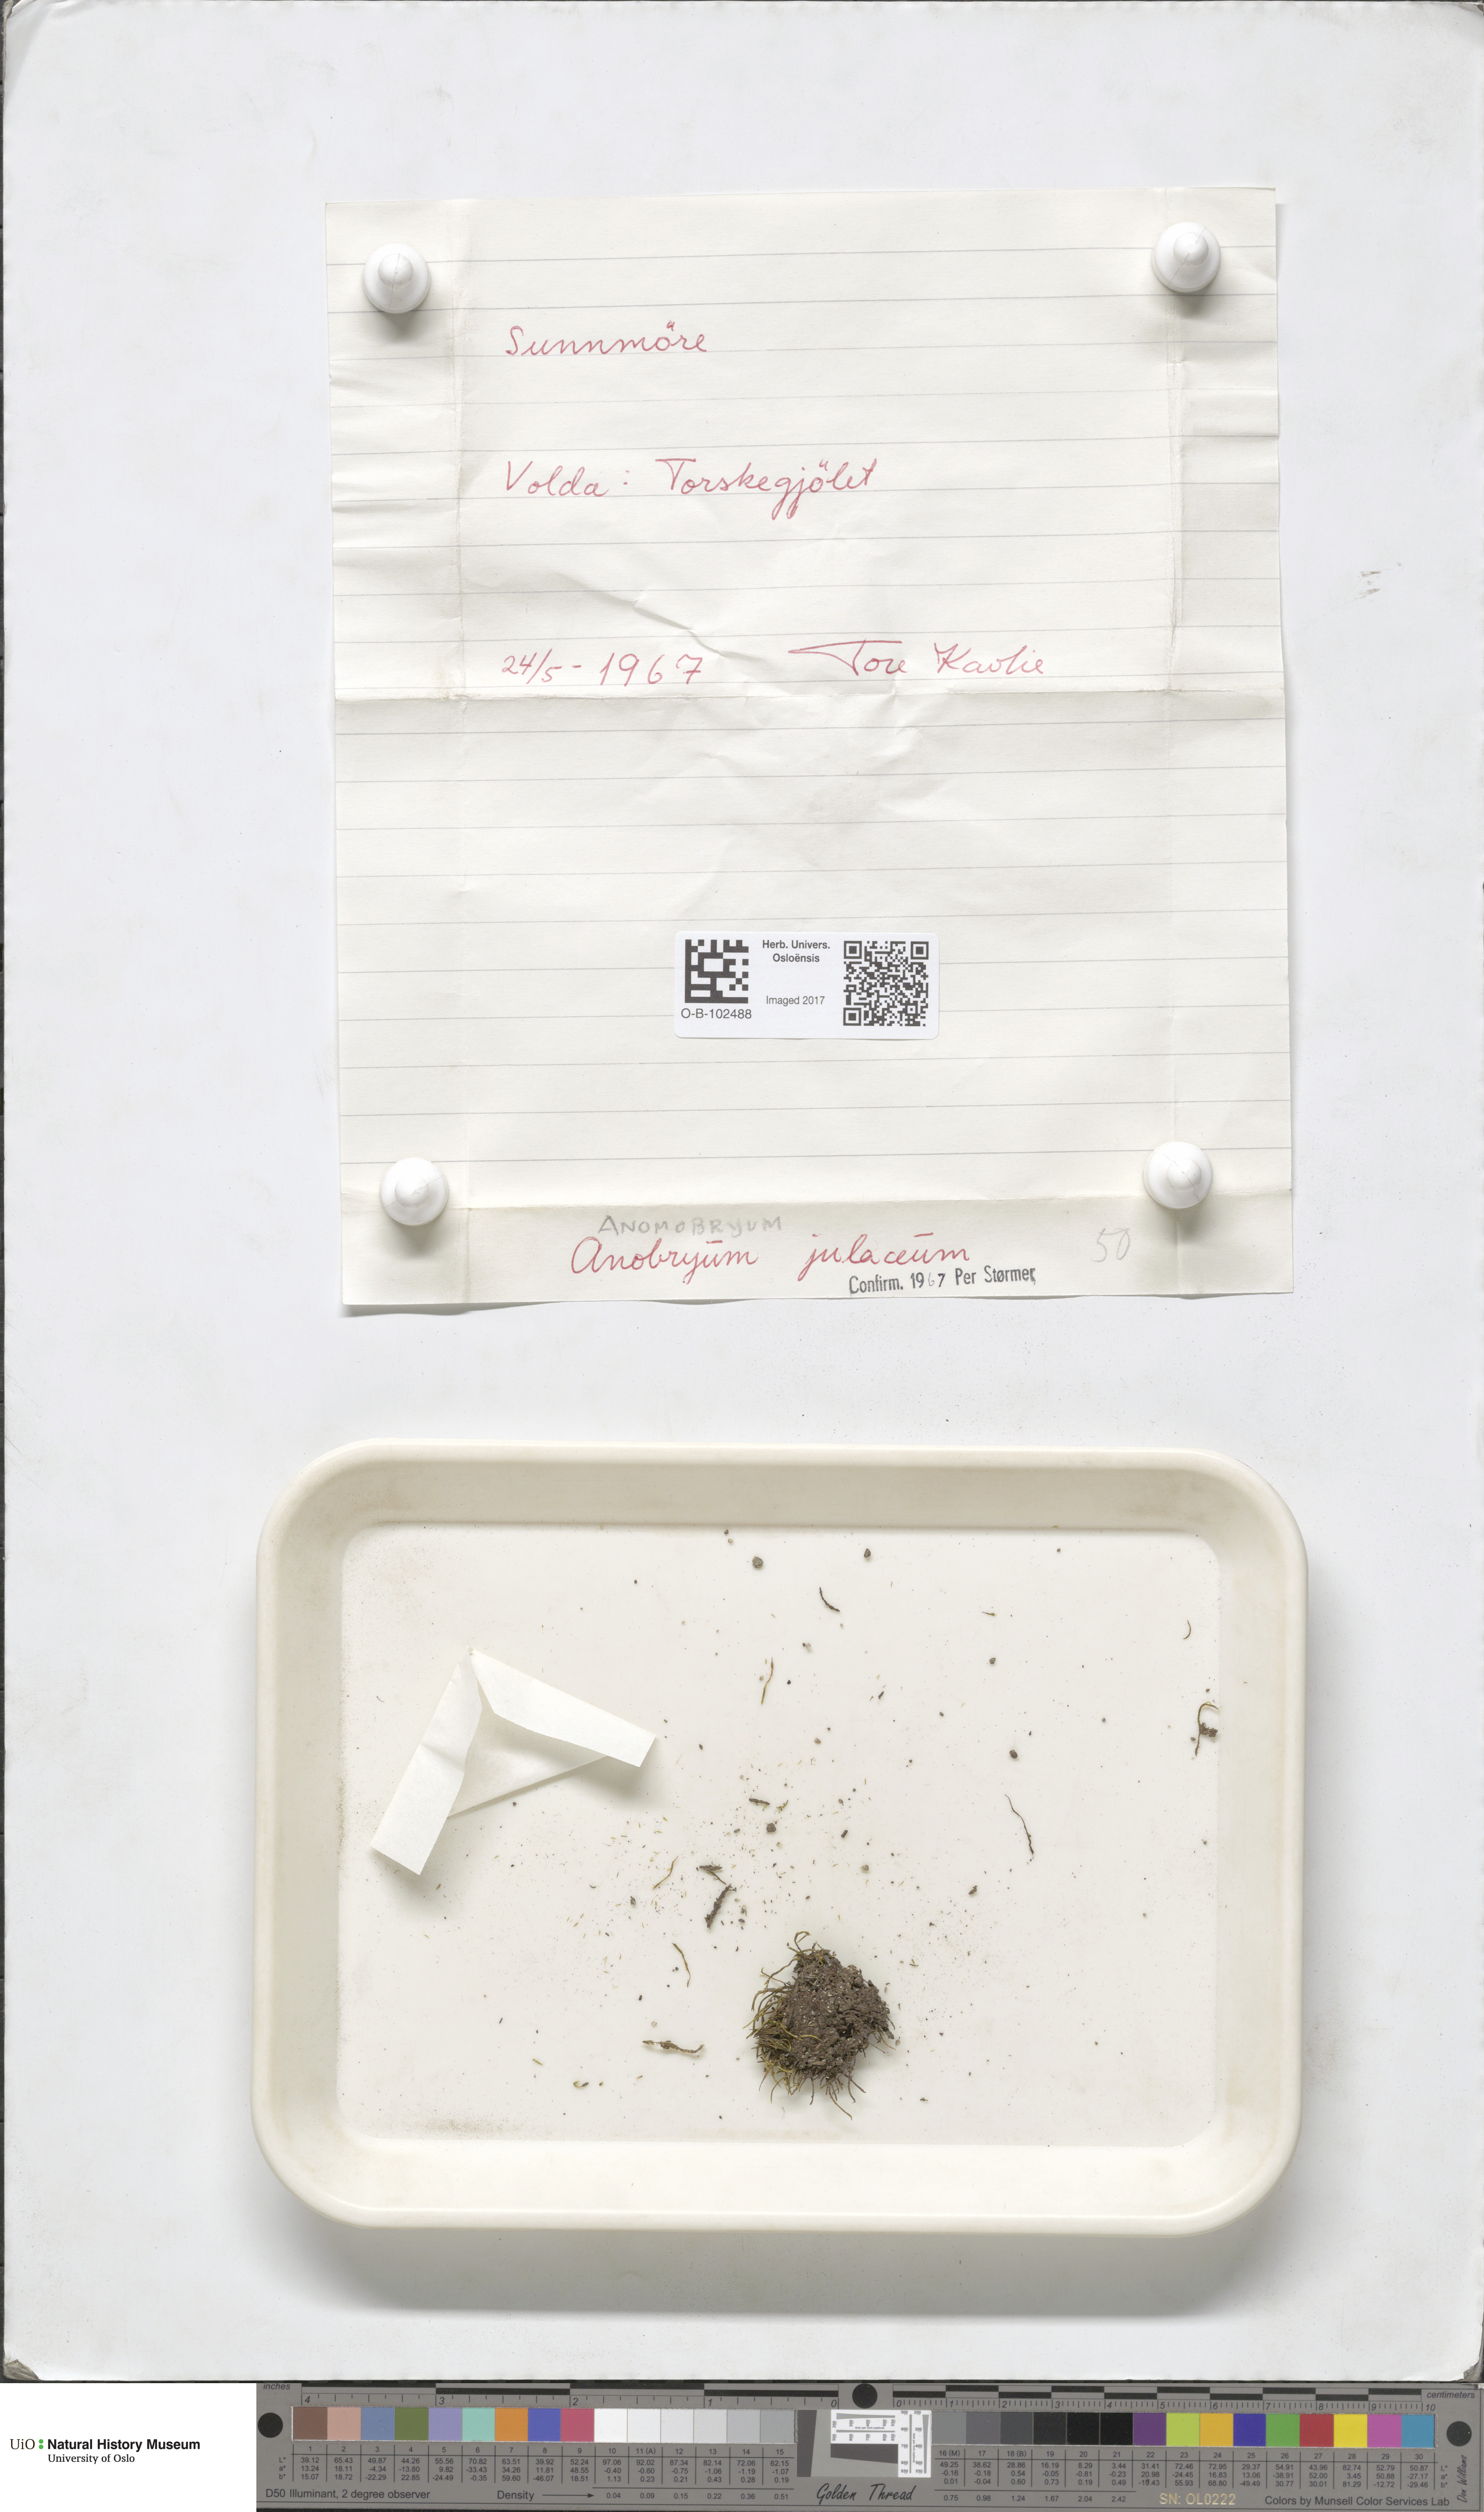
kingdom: Plantae
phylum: Bryophyta
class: Bryopsida
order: Bryales
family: Bryaceae
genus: Anomobryum
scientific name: Anomobryum julaceum
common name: Slender silver moss
